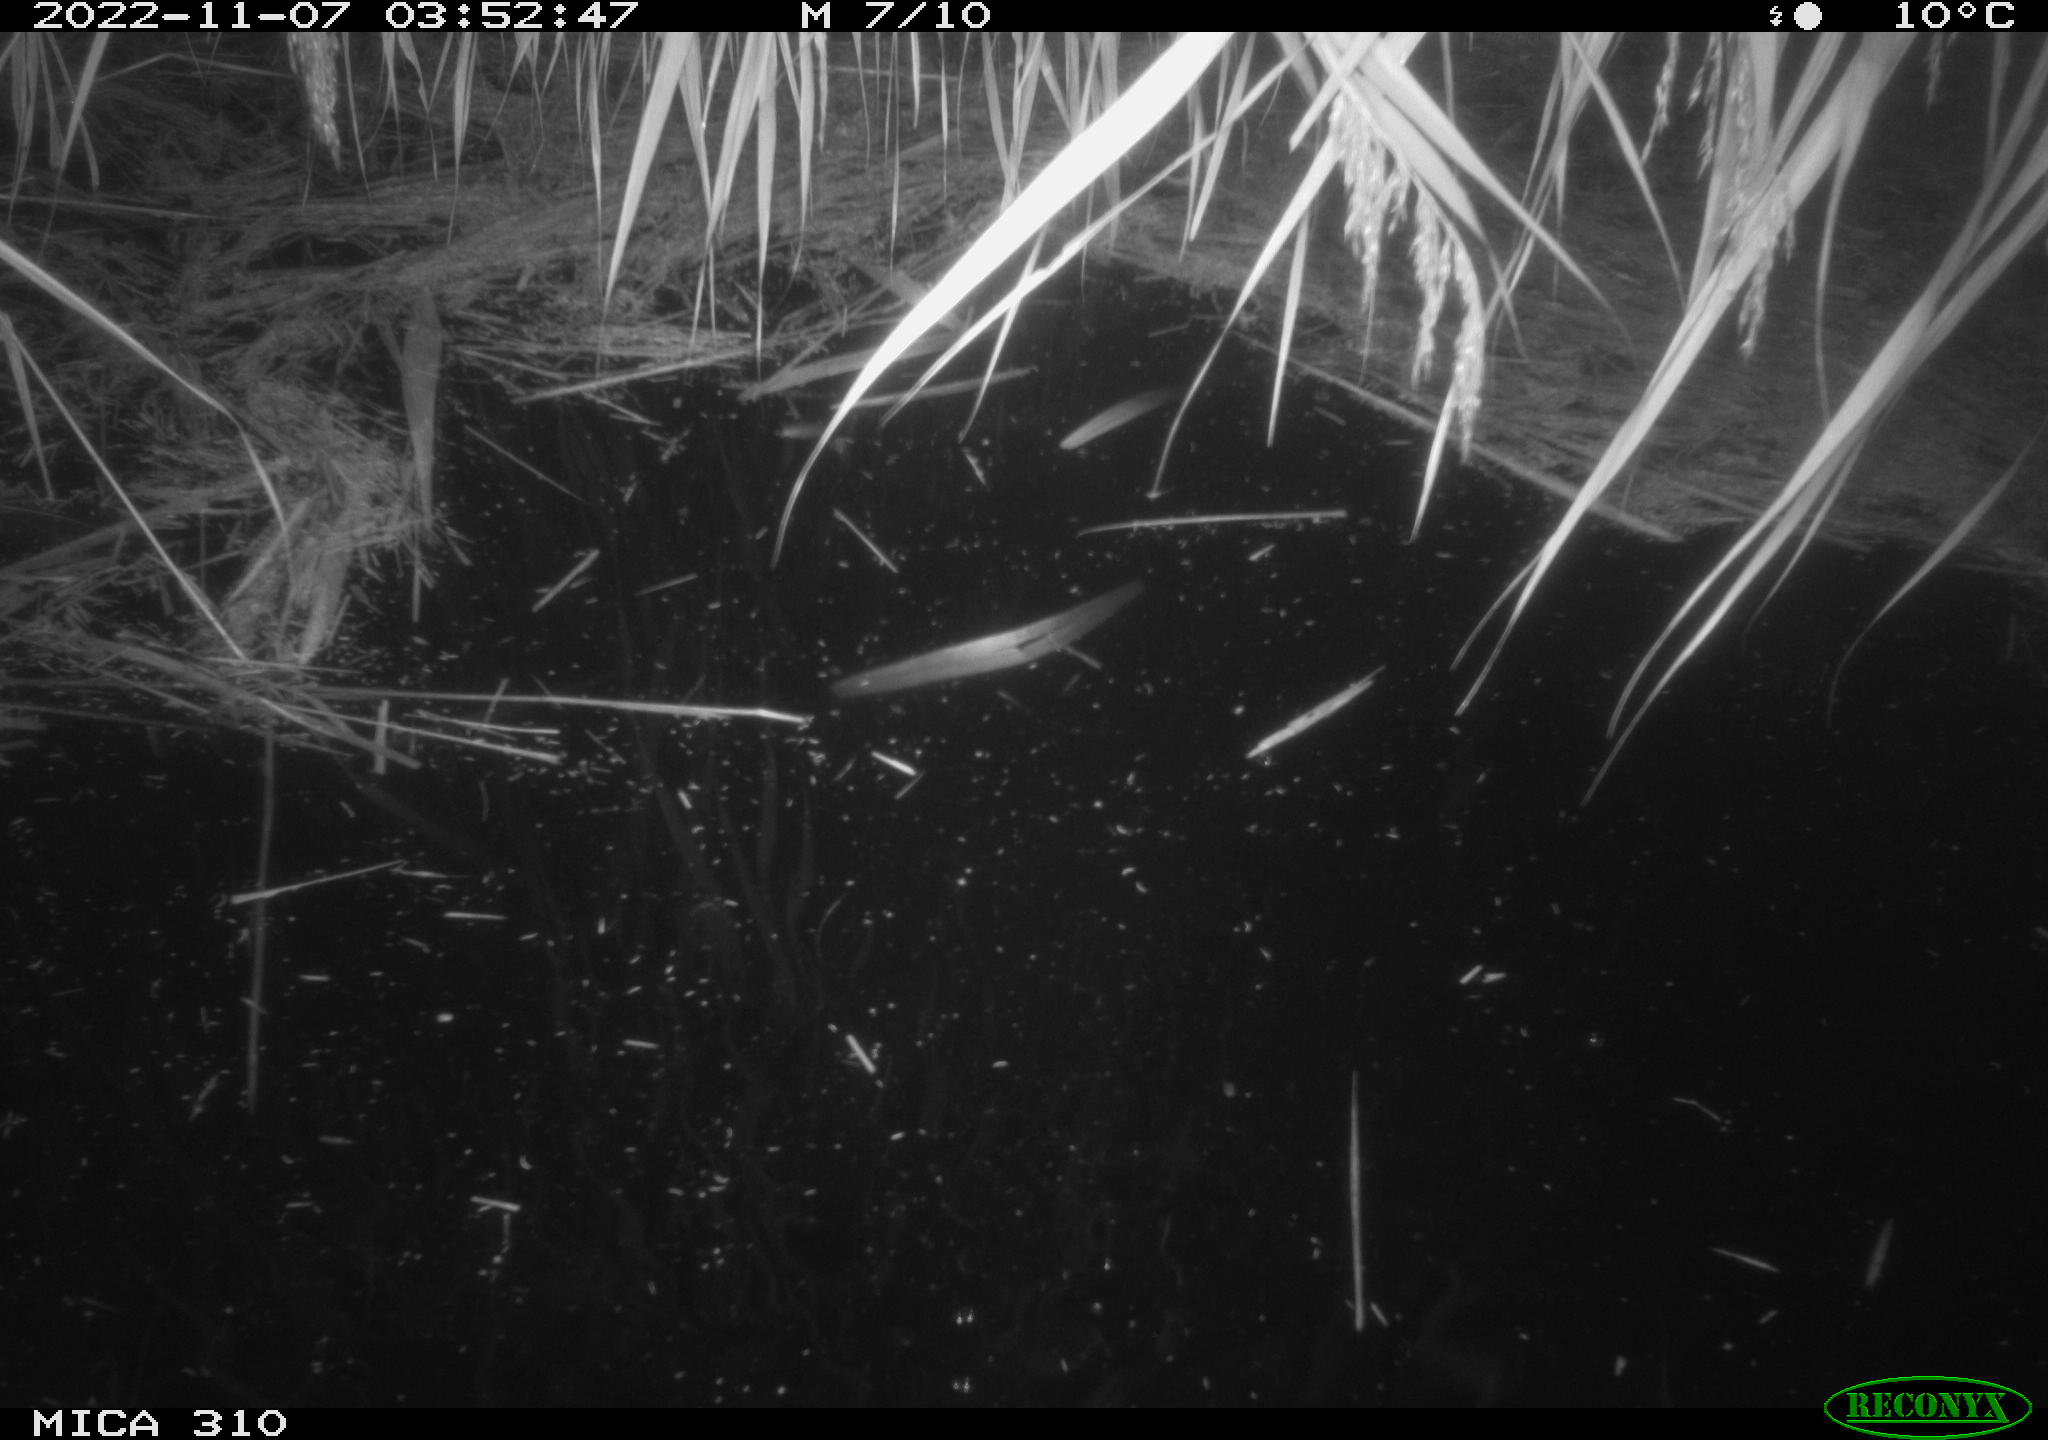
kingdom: Animalia
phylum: Chordata
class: Mammalia
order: Rodentia
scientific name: Rodentia
